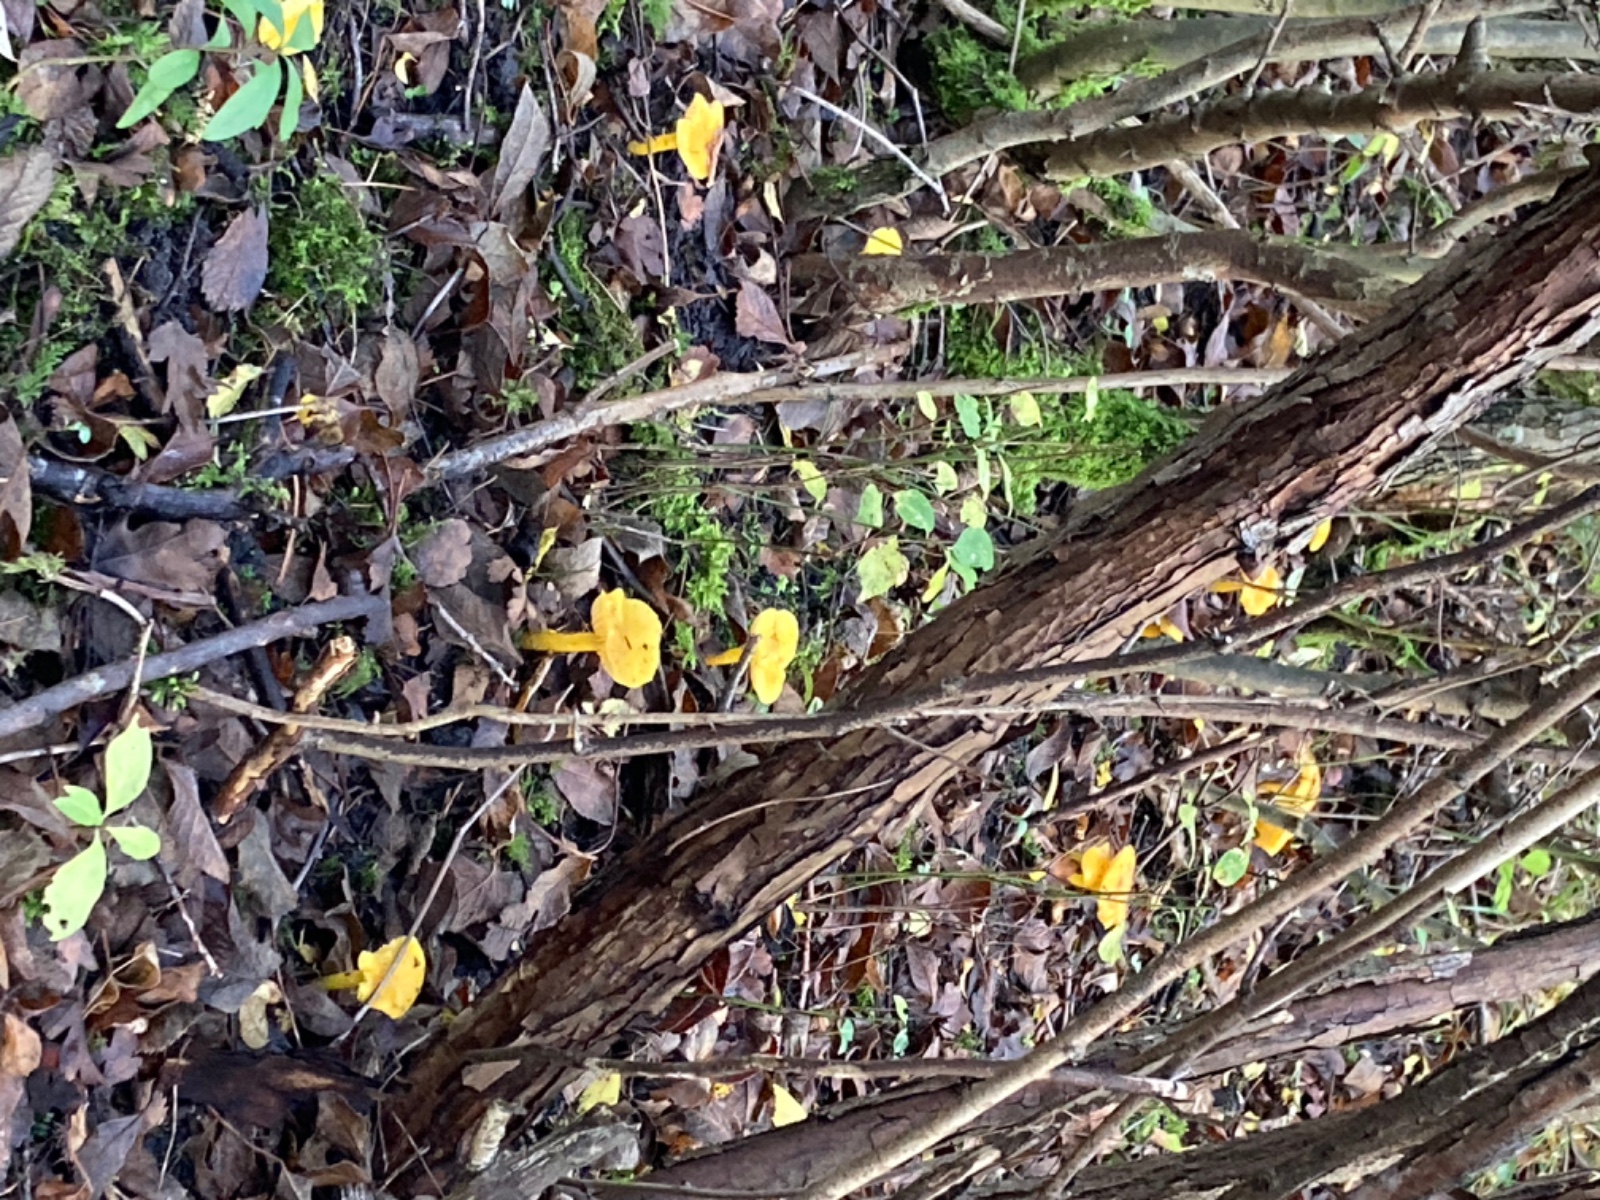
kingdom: Fungi
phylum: Basidiomycota
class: Agaricomycetes
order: Agaricales
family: Hygrophoraceae
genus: Hygrocybe
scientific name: Hygrocybe chlorophana
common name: gul vokshat
